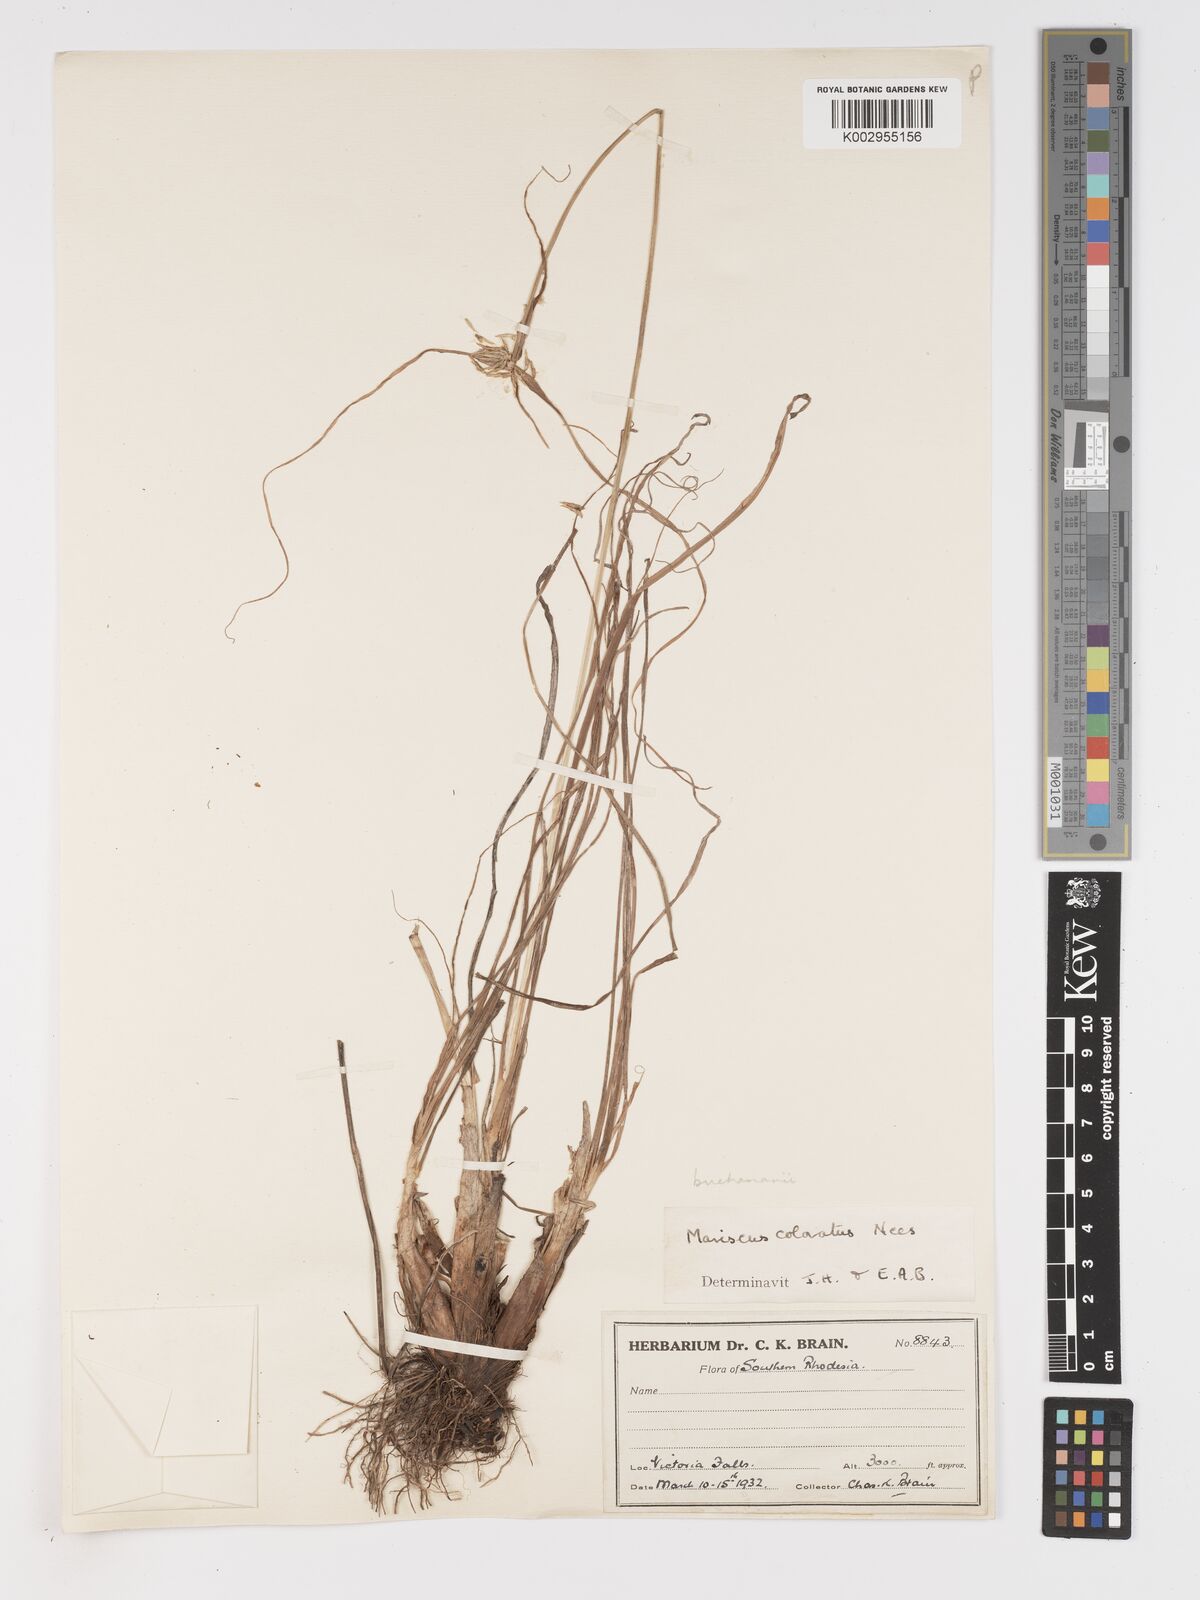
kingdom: Plantae
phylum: Tracheophyta
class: Liliopsida
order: Poales
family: Cyperaceae
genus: Cyperus
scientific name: Cyperus dubius
